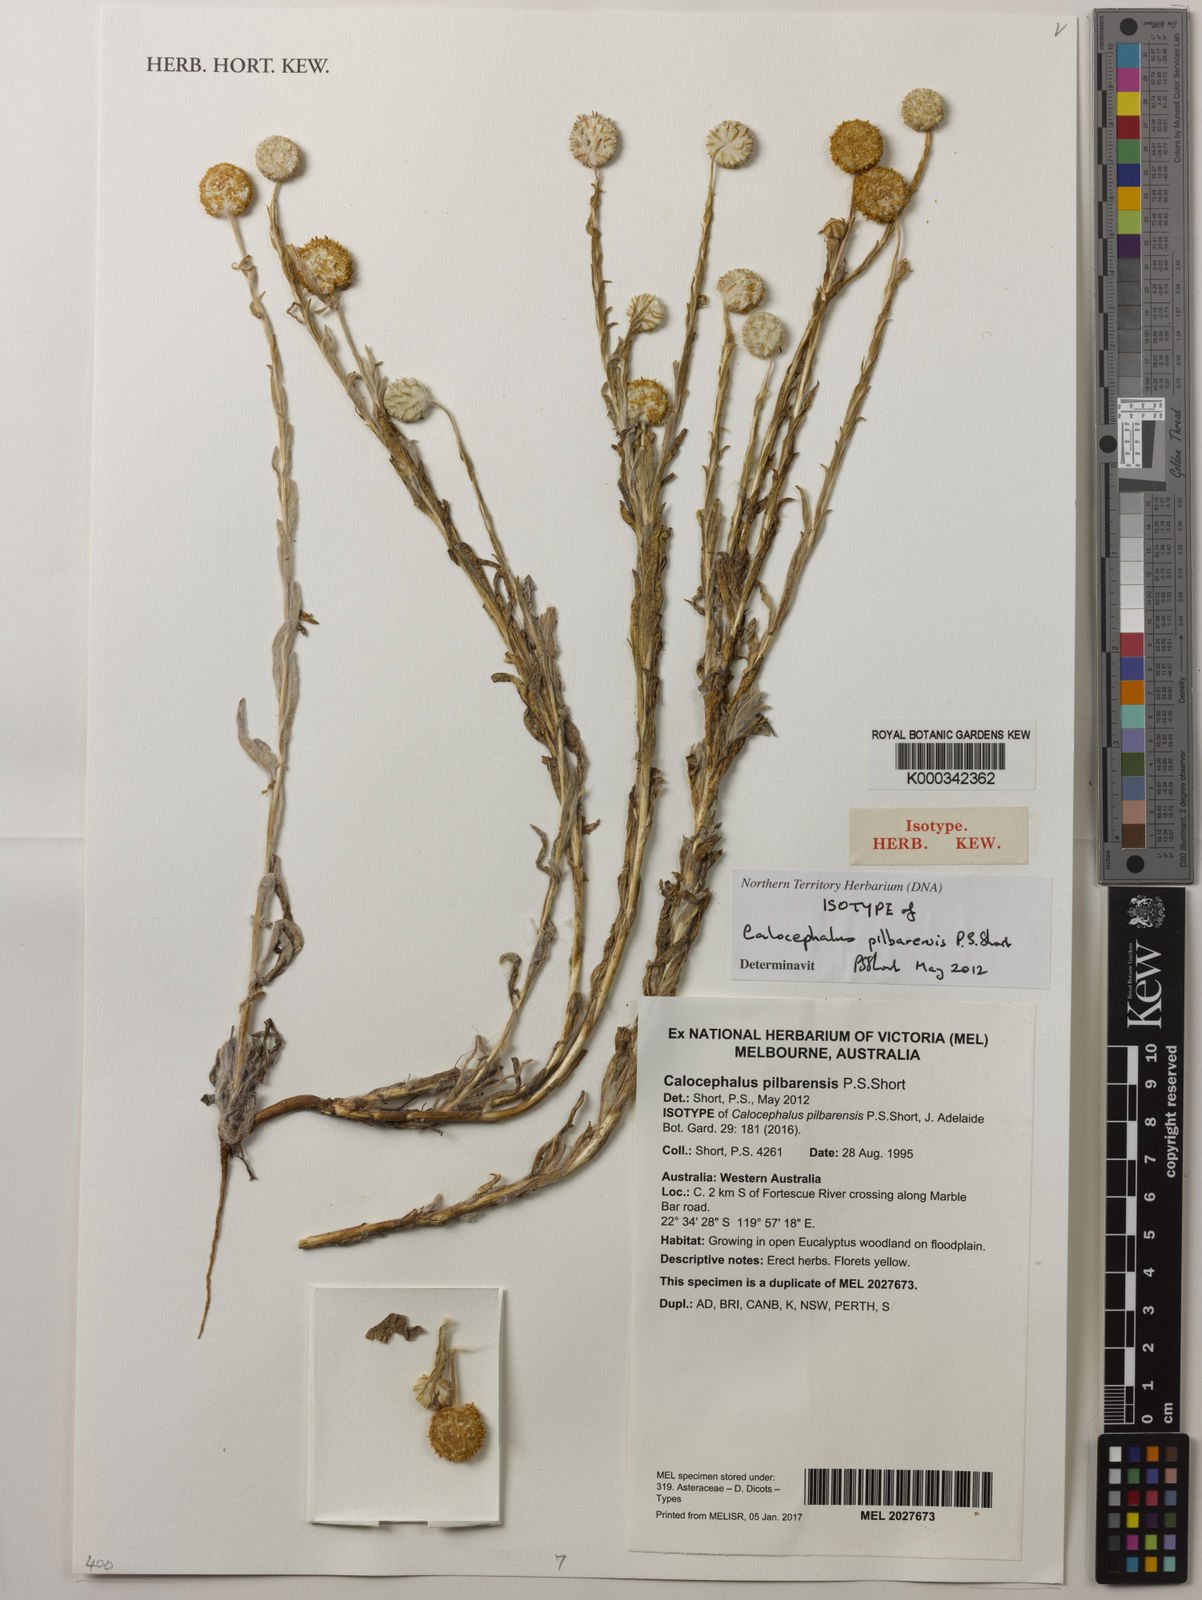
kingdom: Plantae
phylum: Tracheophyta
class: Magnoliopsida
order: Asterales
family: Asteraceae
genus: Calocephalus
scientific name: Calocephalus pilbarensis
